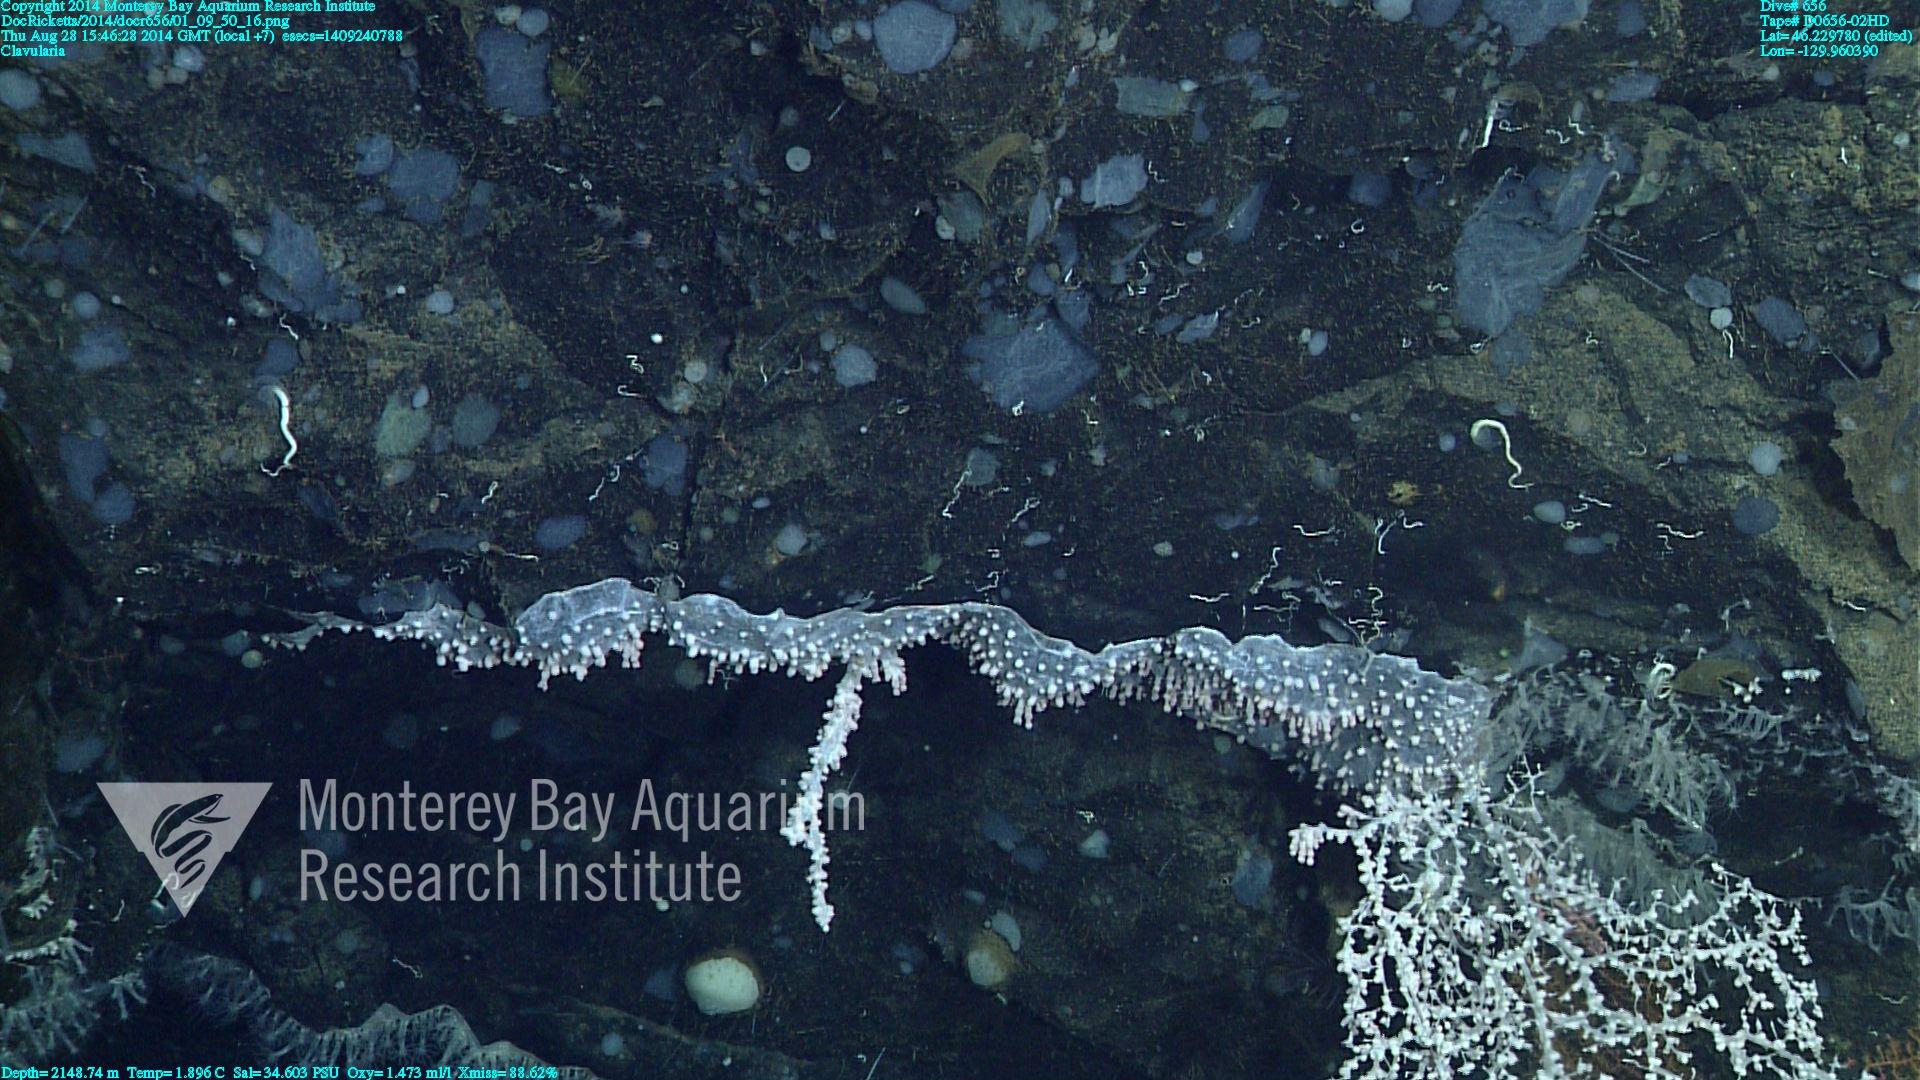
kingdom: Animalia
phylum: Cnidaria
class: Anthozoa
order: Malacalcyonacea
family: Clavulariidae
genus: Clavularia
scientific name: Clavularia
